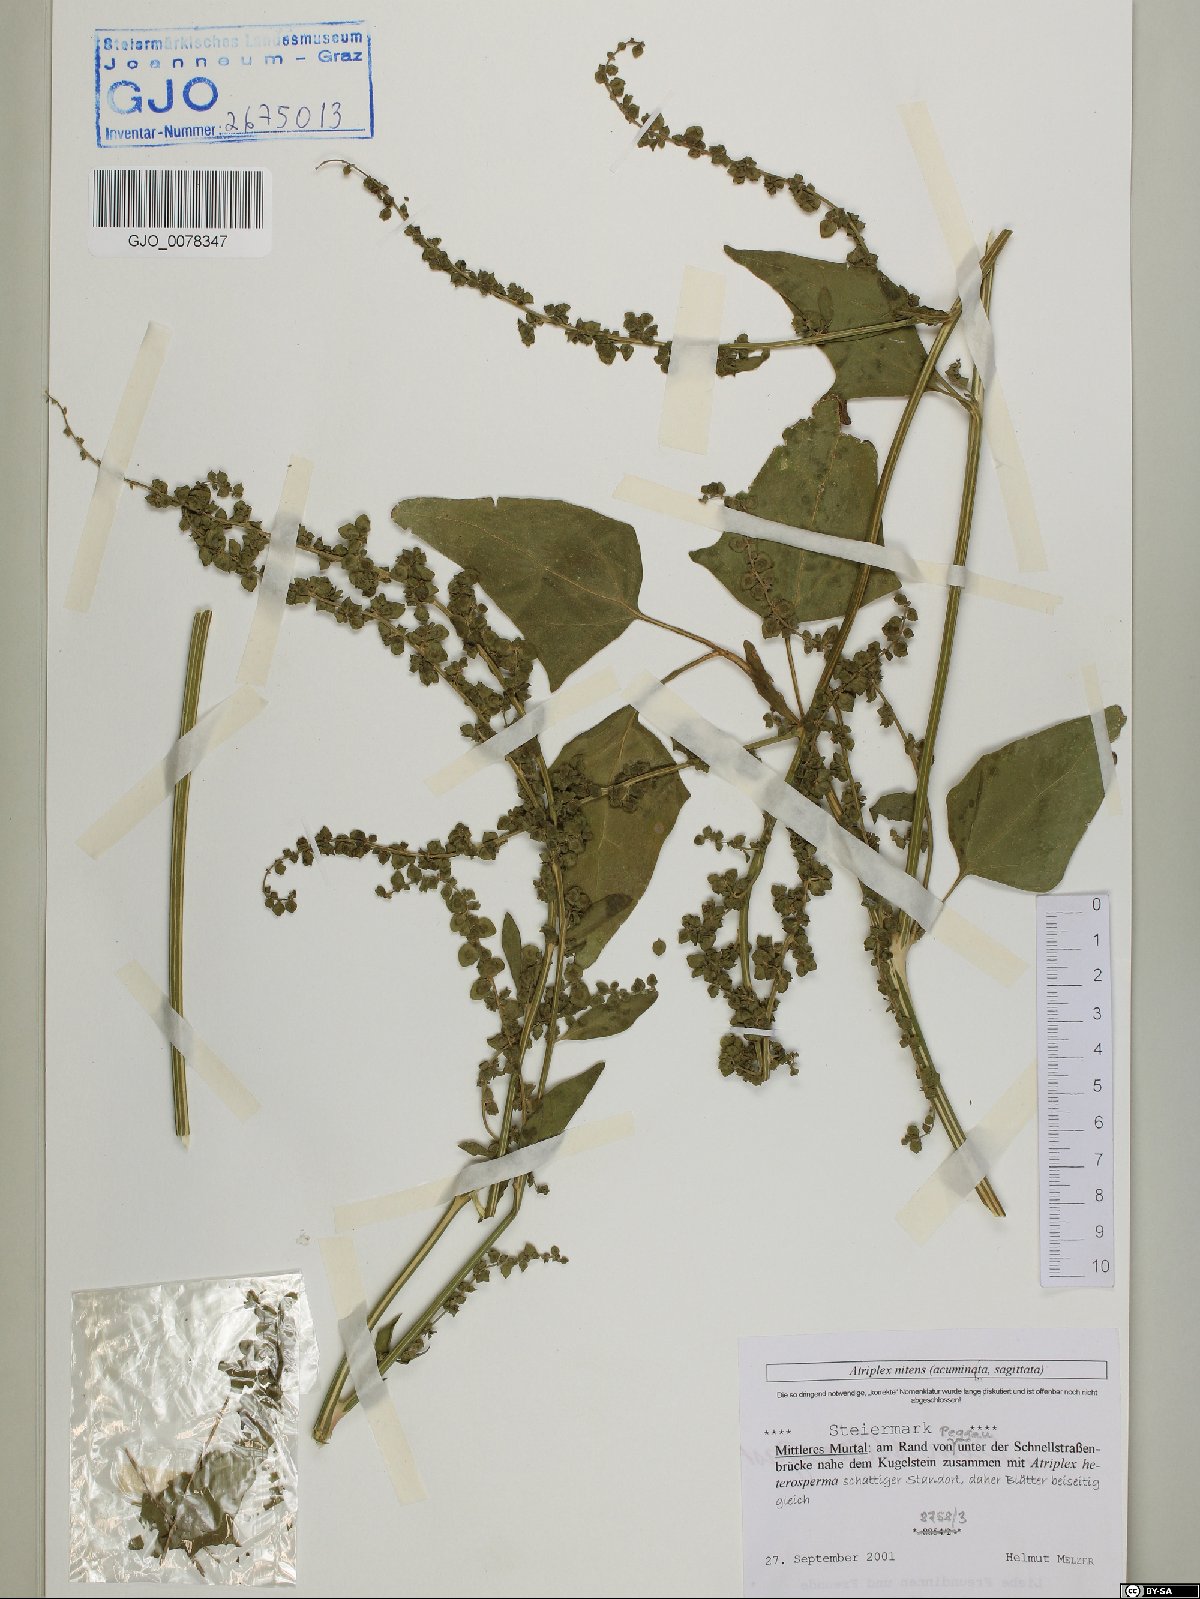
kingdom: Plantae
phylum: Tracheophyta
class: Magnoliopsida
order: Caryophyllales
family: Amaranthaceae
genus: Atriplex
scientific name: Atriplex sagittata
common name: Purple orache
